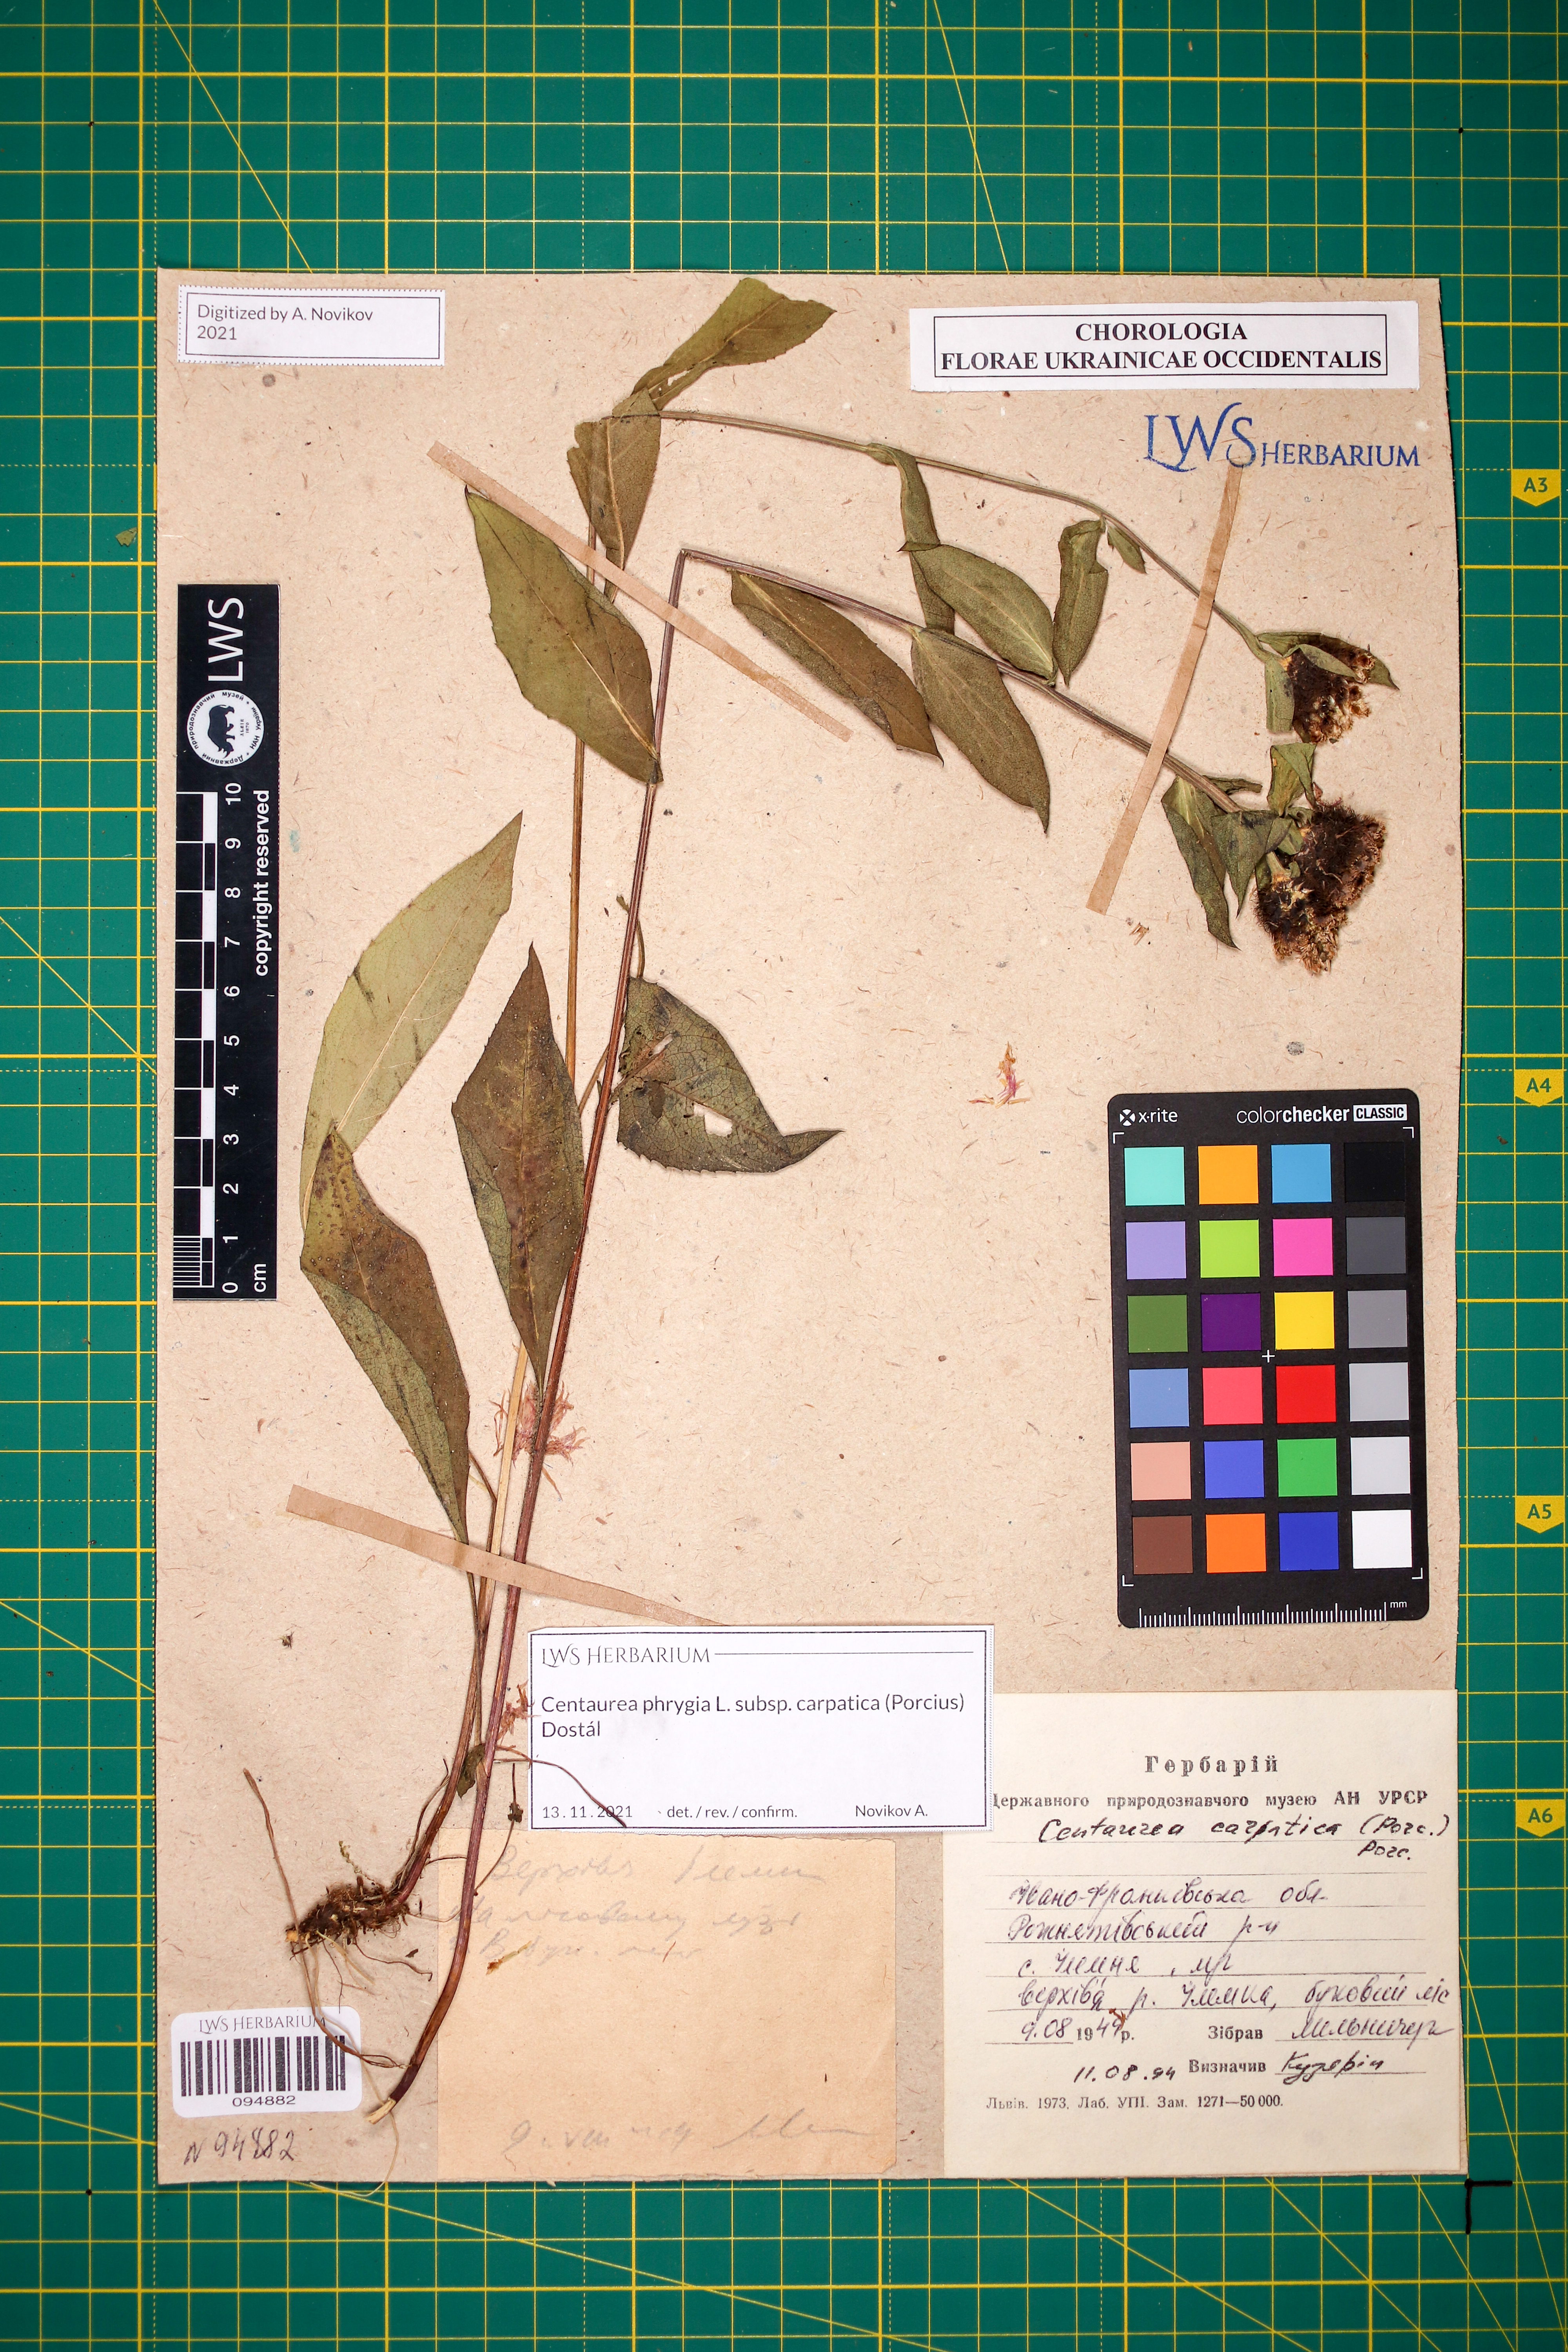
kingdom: Plantae
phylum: Tracheophyta
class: Magnoliopsida
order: Asterales
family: Asteraceae
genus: Centaurea
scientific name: Centaurea phrygia
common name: Wig knapweed
